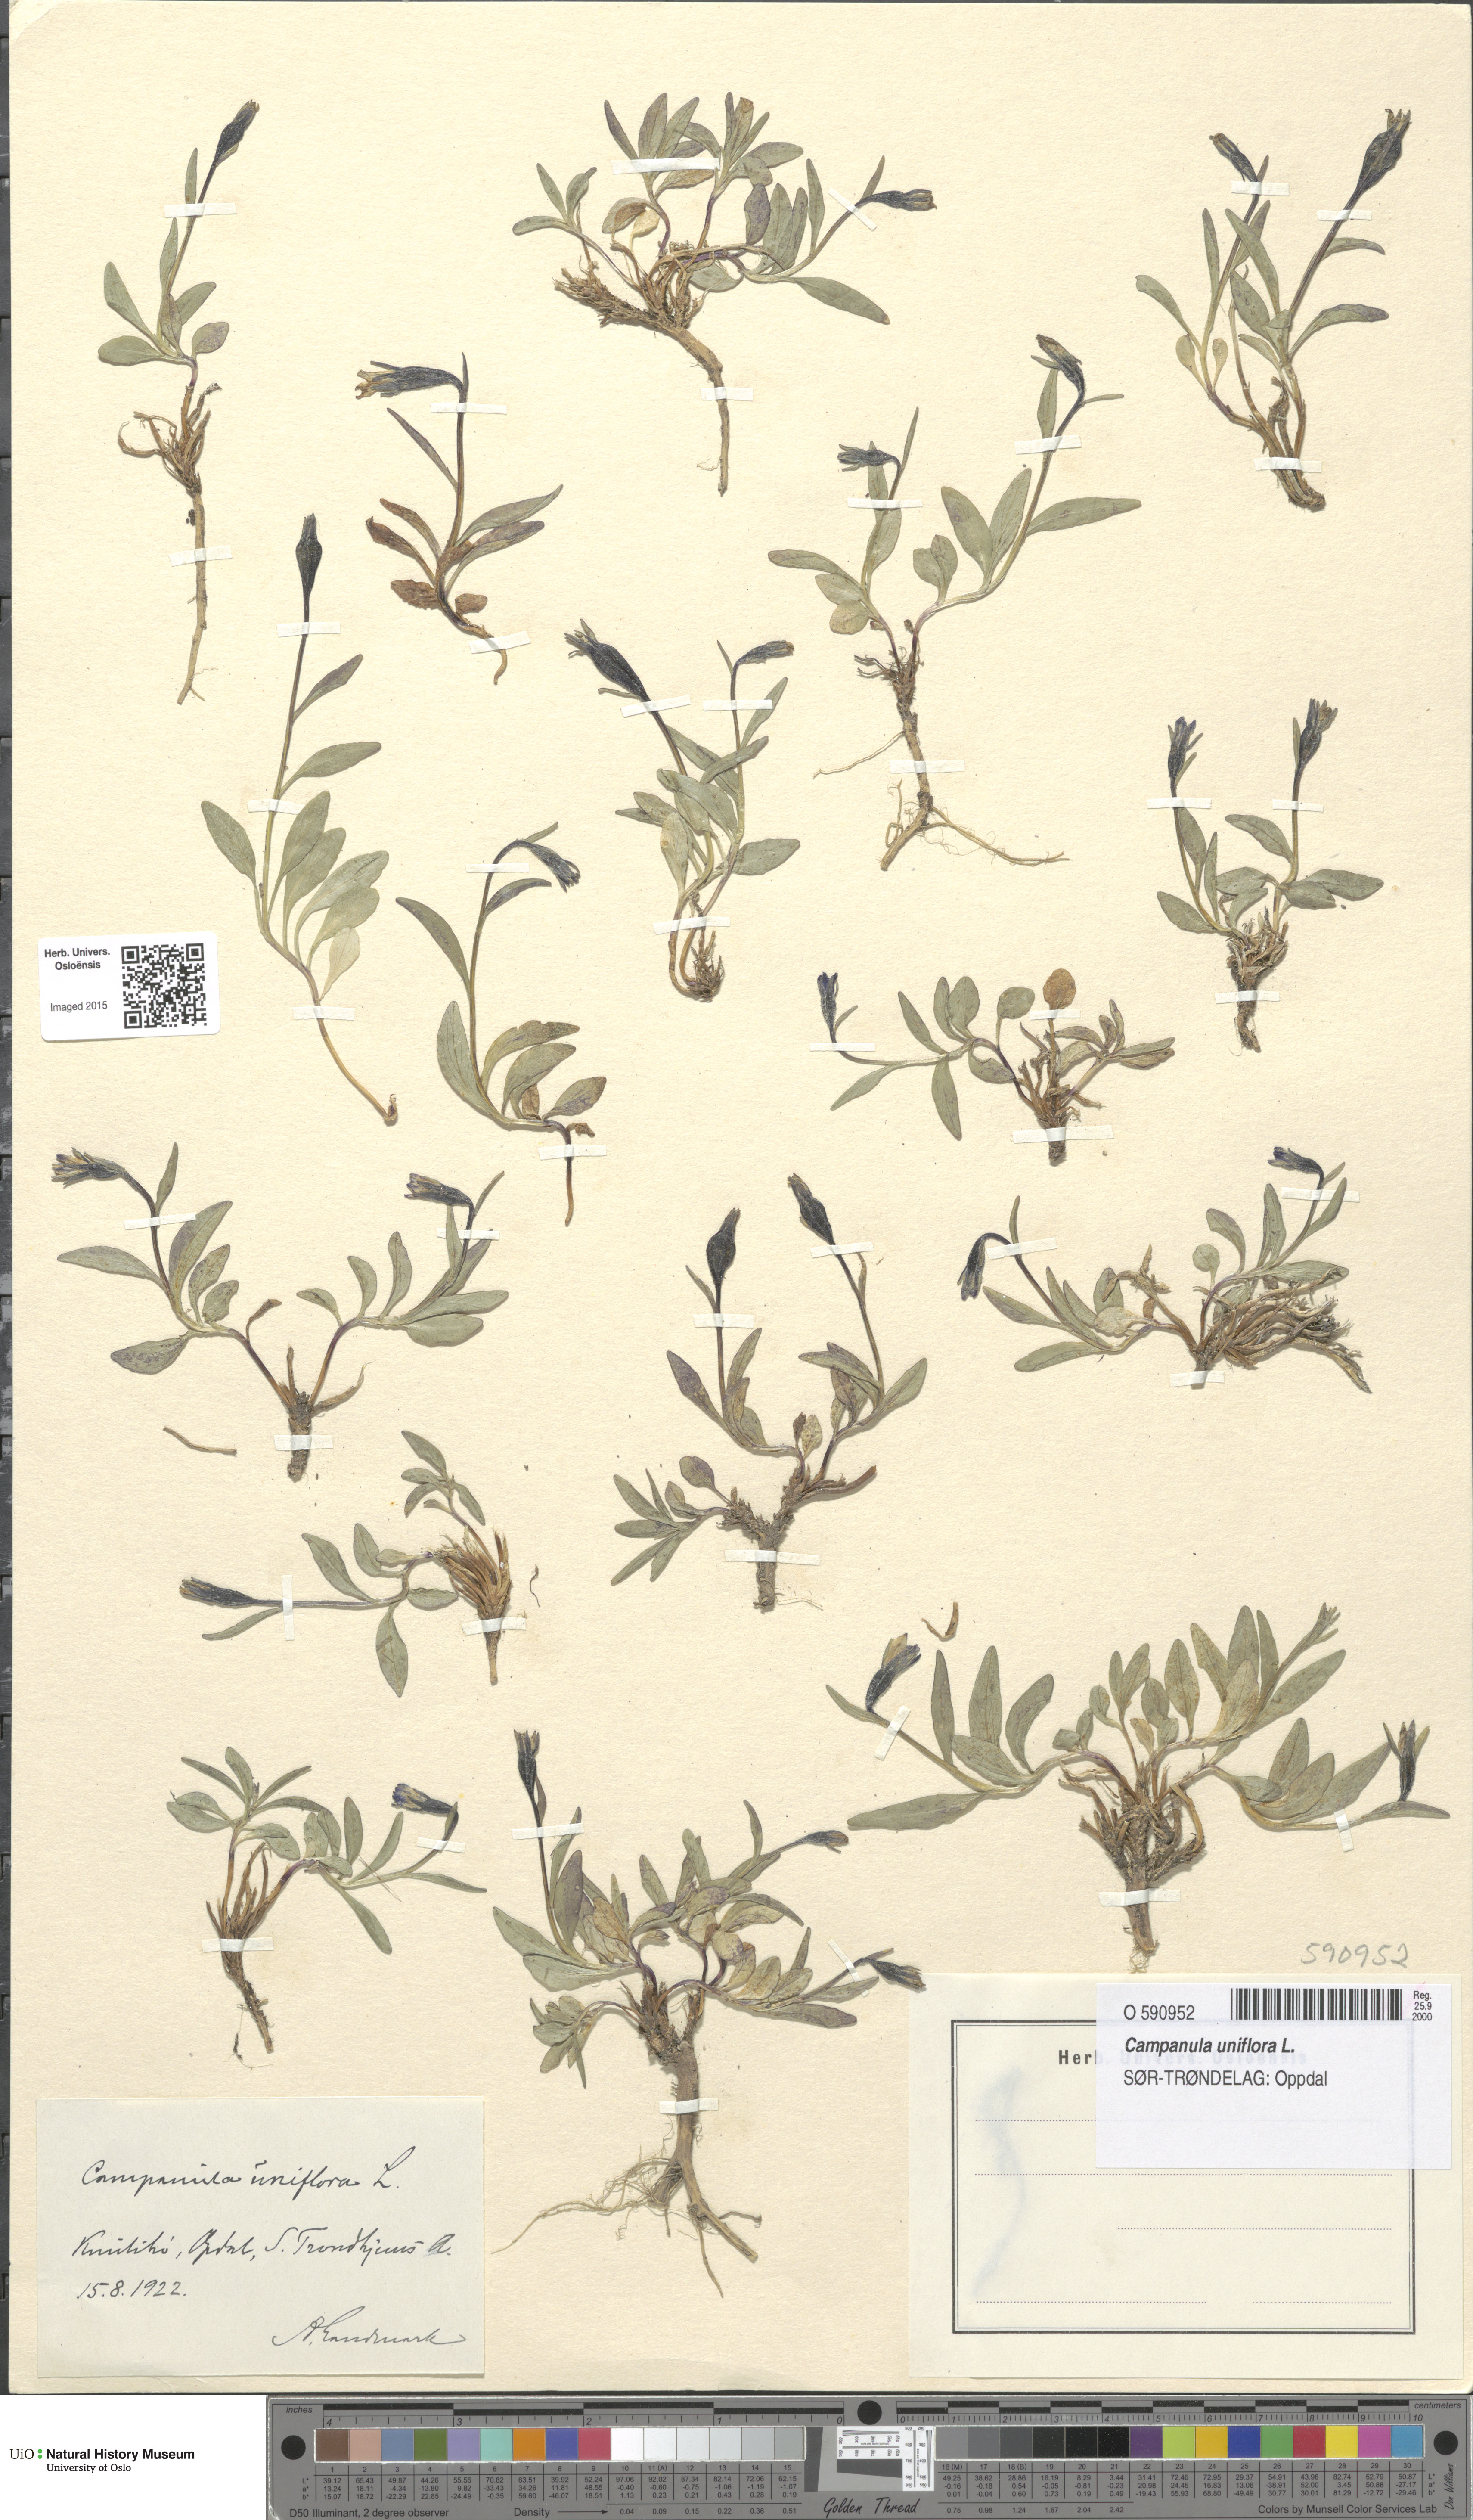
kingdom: Plantae
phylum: Tracheophyta
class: Magnoliopsida
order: Asterales
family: Campanulaceae
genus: Melanocalyx
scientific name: Melanocalyx uniflora
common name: Alpine harebell
